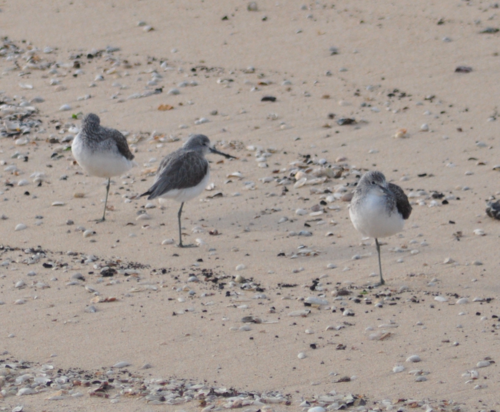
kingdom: Animalia
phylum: Chordata
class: Aves
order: Charadriiformes
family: Scolopacidae
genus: Tringa
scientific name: Tringa nebularia
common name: Common greenshank
